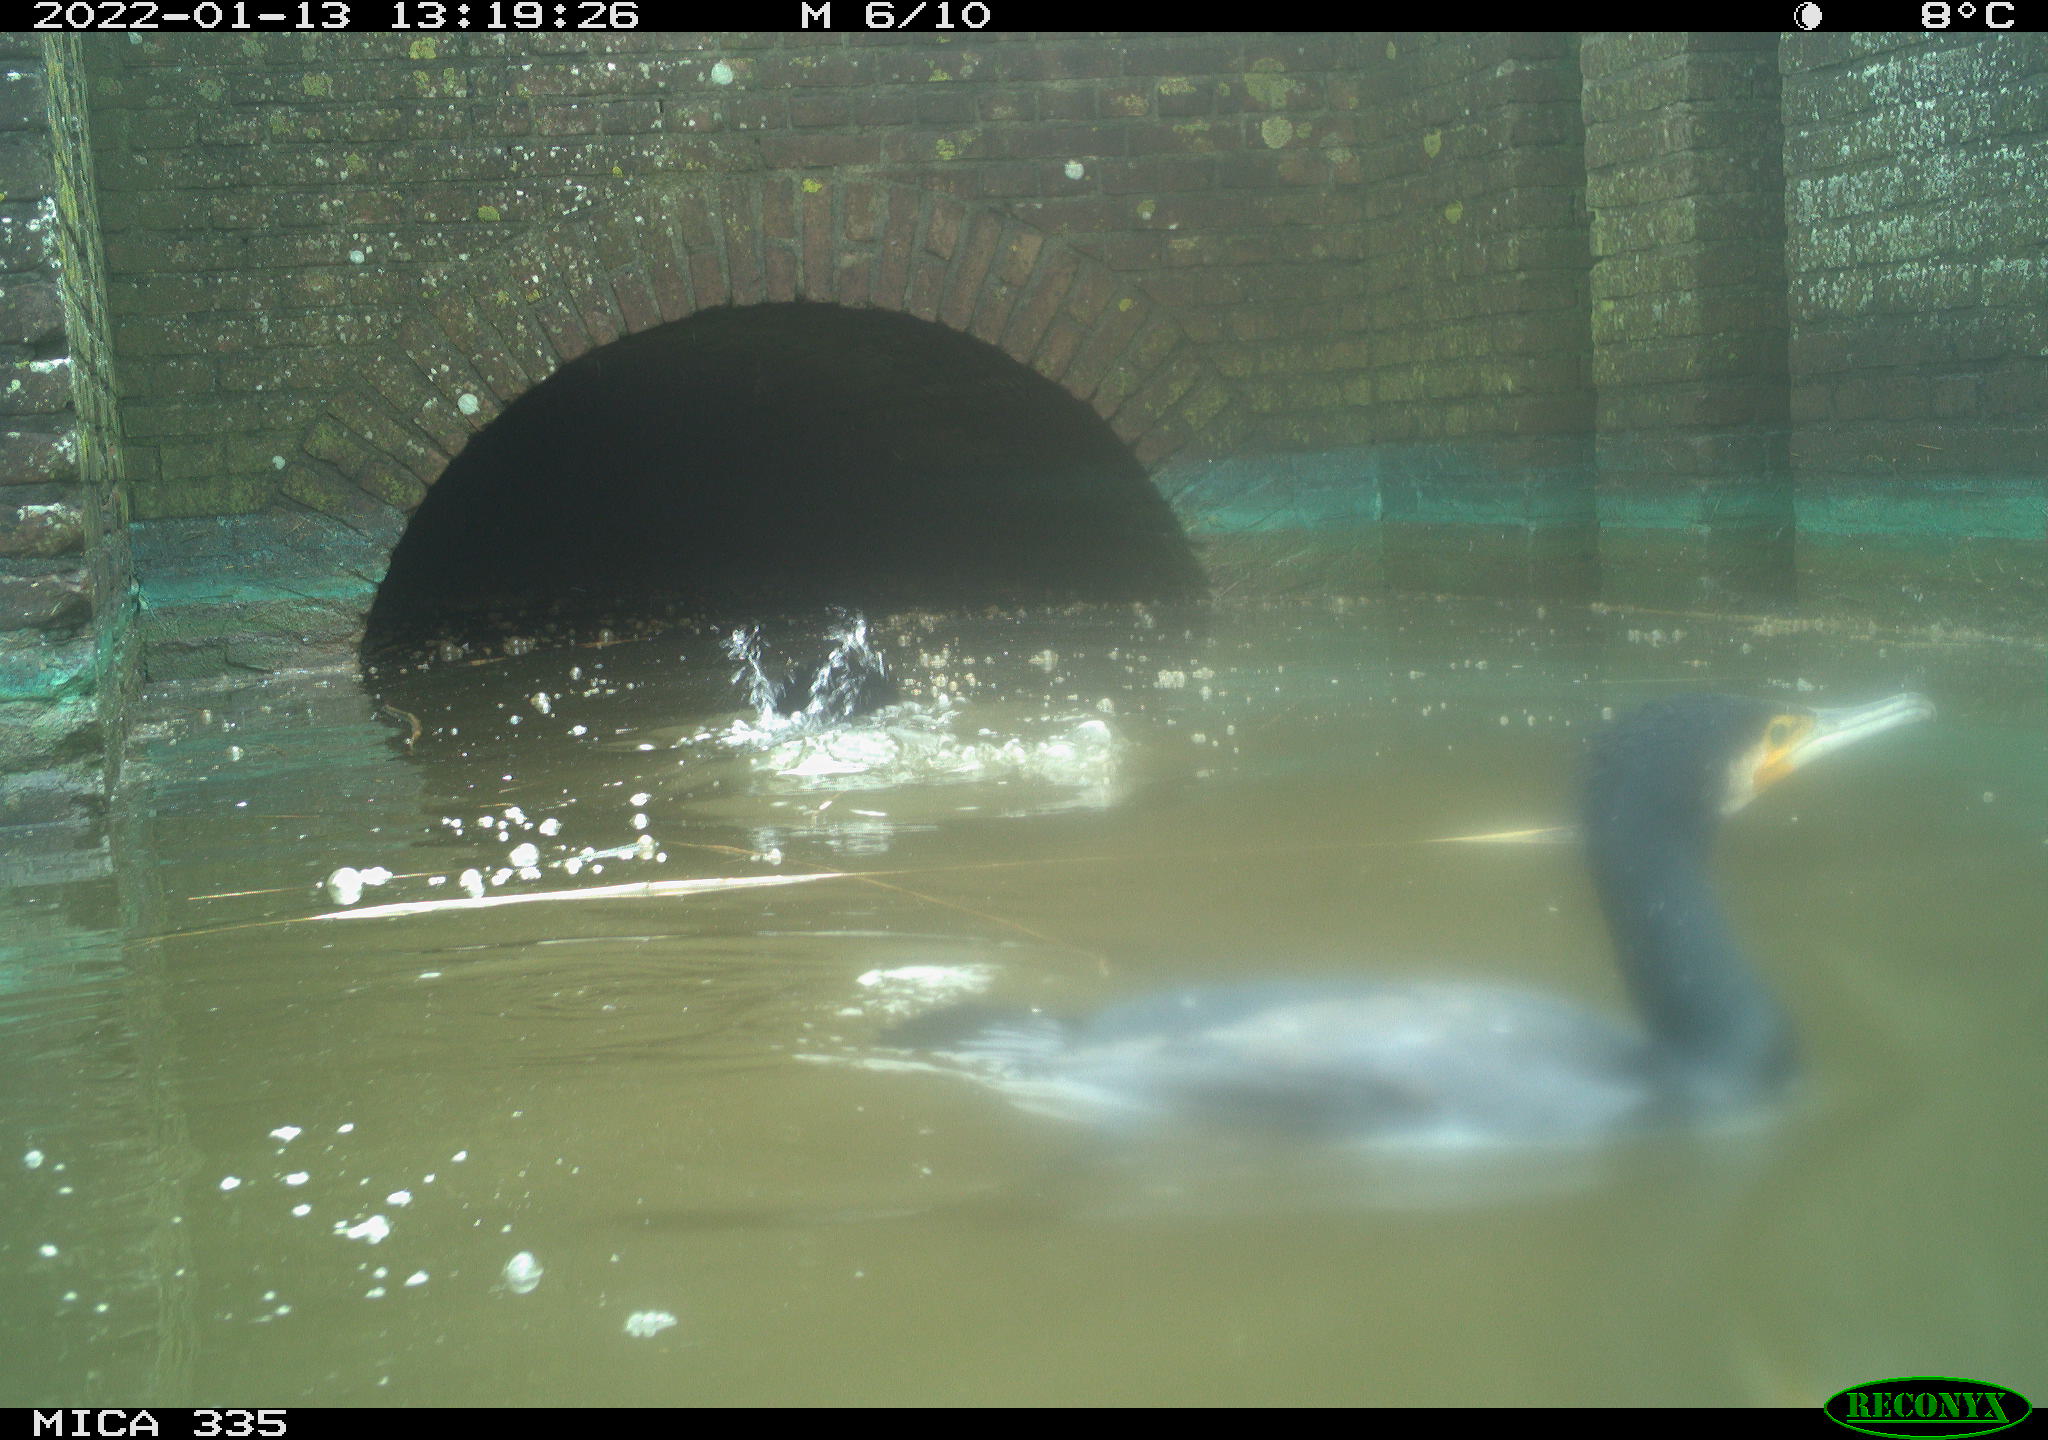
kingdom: Animalia
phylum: Chordata
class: Aves
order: Suliformes
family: Phalacrocoracidae
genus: Phalacrocorax
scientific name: Phalacrocorax carbo
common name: Great cormorant
